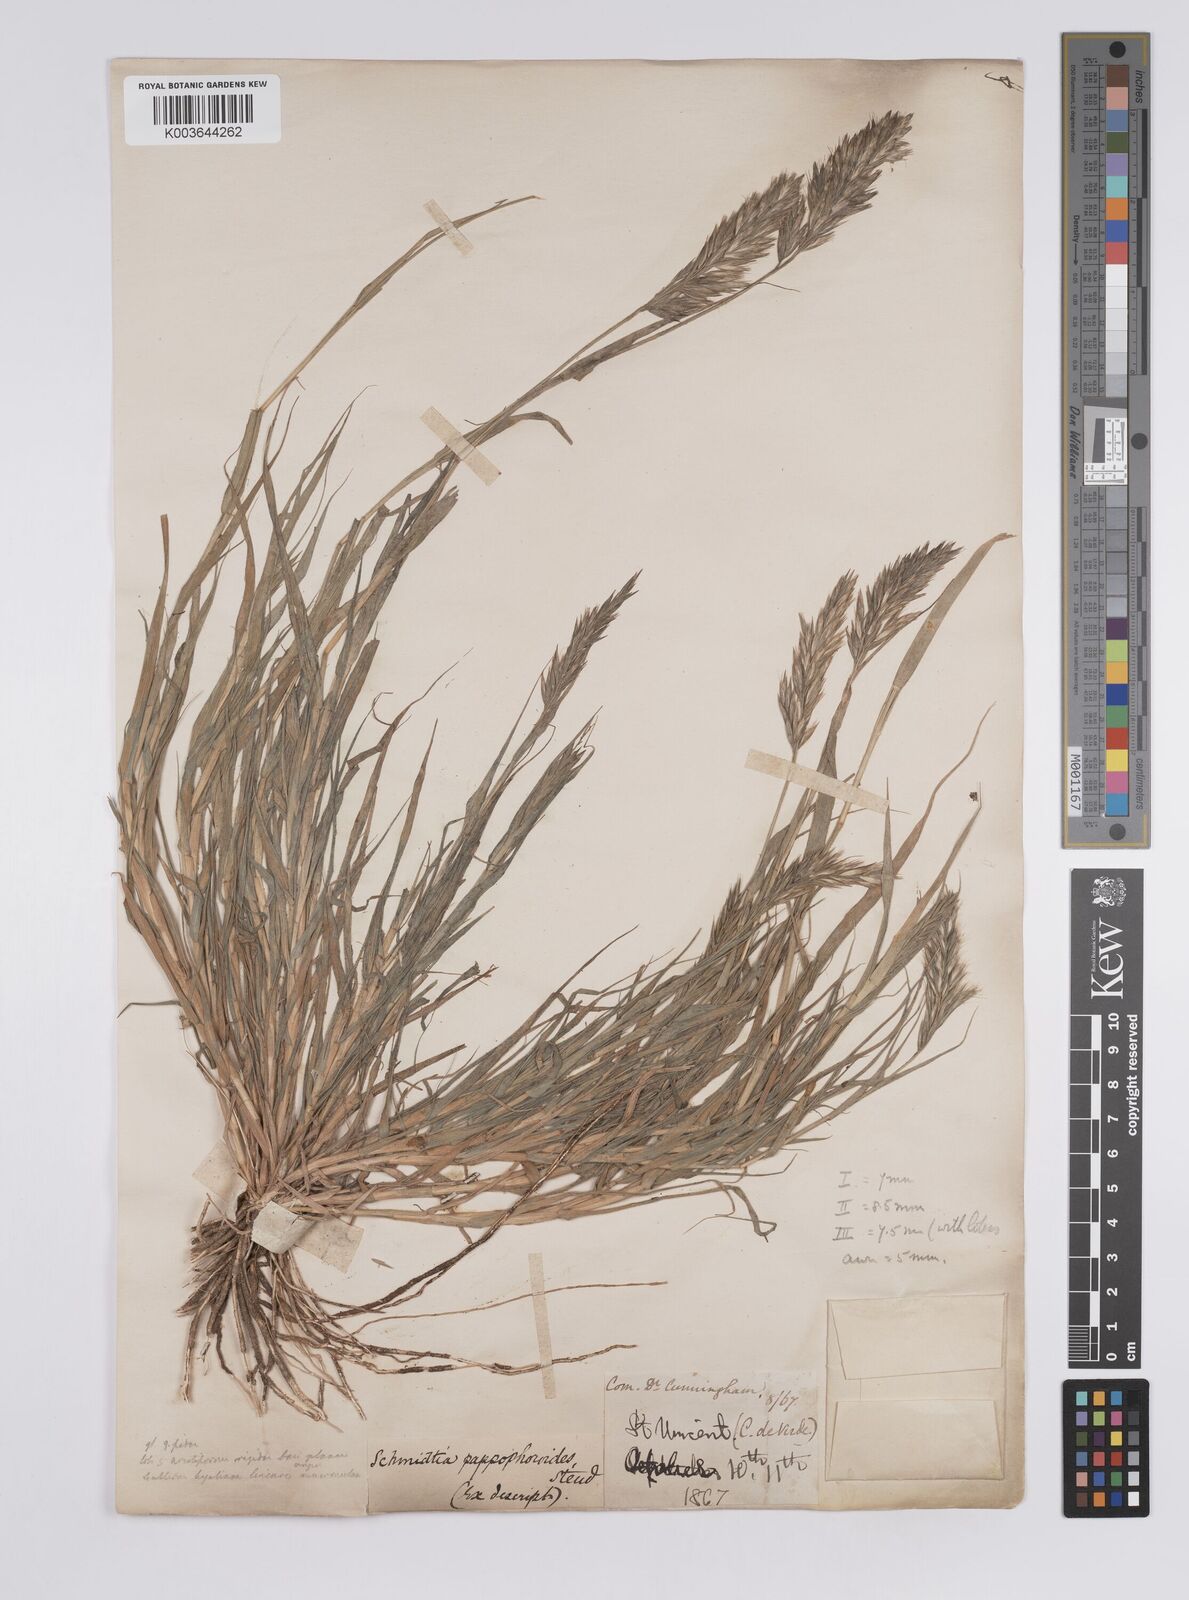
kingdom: Plantae
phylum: Tracheophyta
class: Liliopsida
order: Poales
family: Poaceae
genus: Schmidtia
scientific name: Schmidtia pappophoroides
